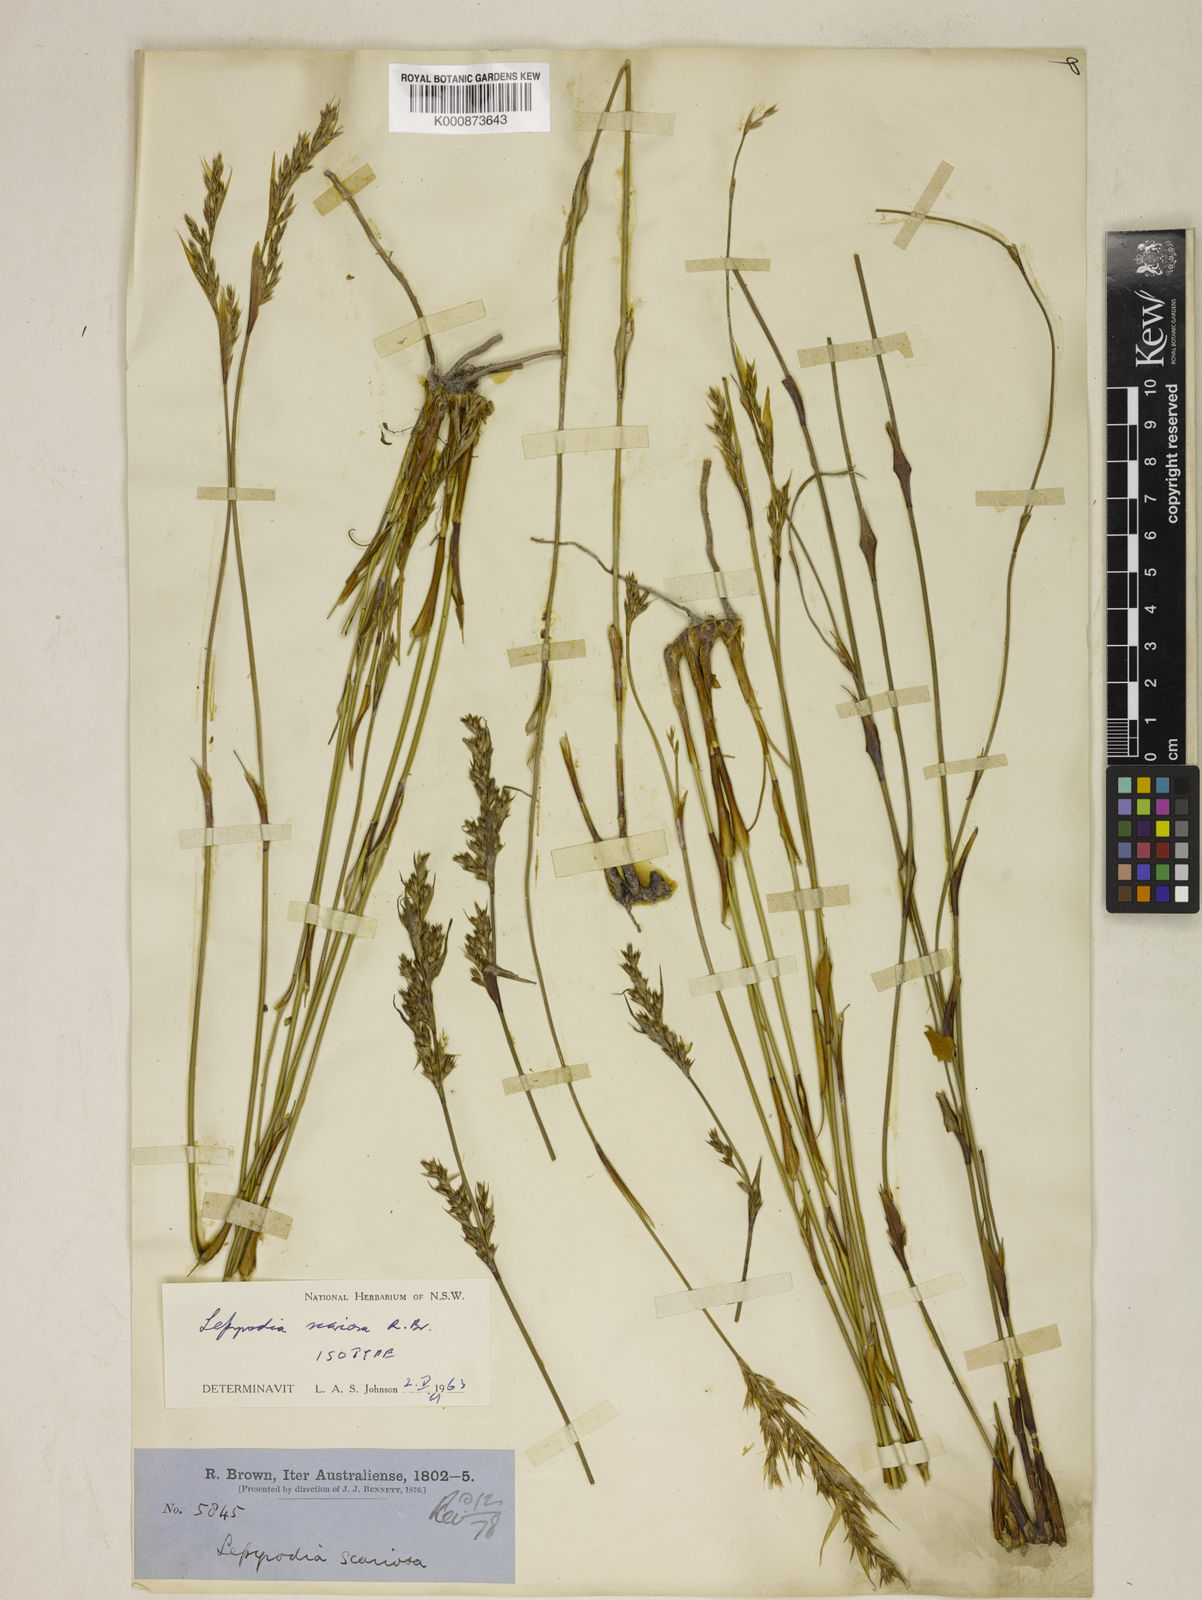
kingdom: Plantae
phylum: Tracheophyta
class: Liliopsida
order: Poales
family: Restionaceae
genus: Lepyrodia
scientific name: Lepyrodia scariosa
